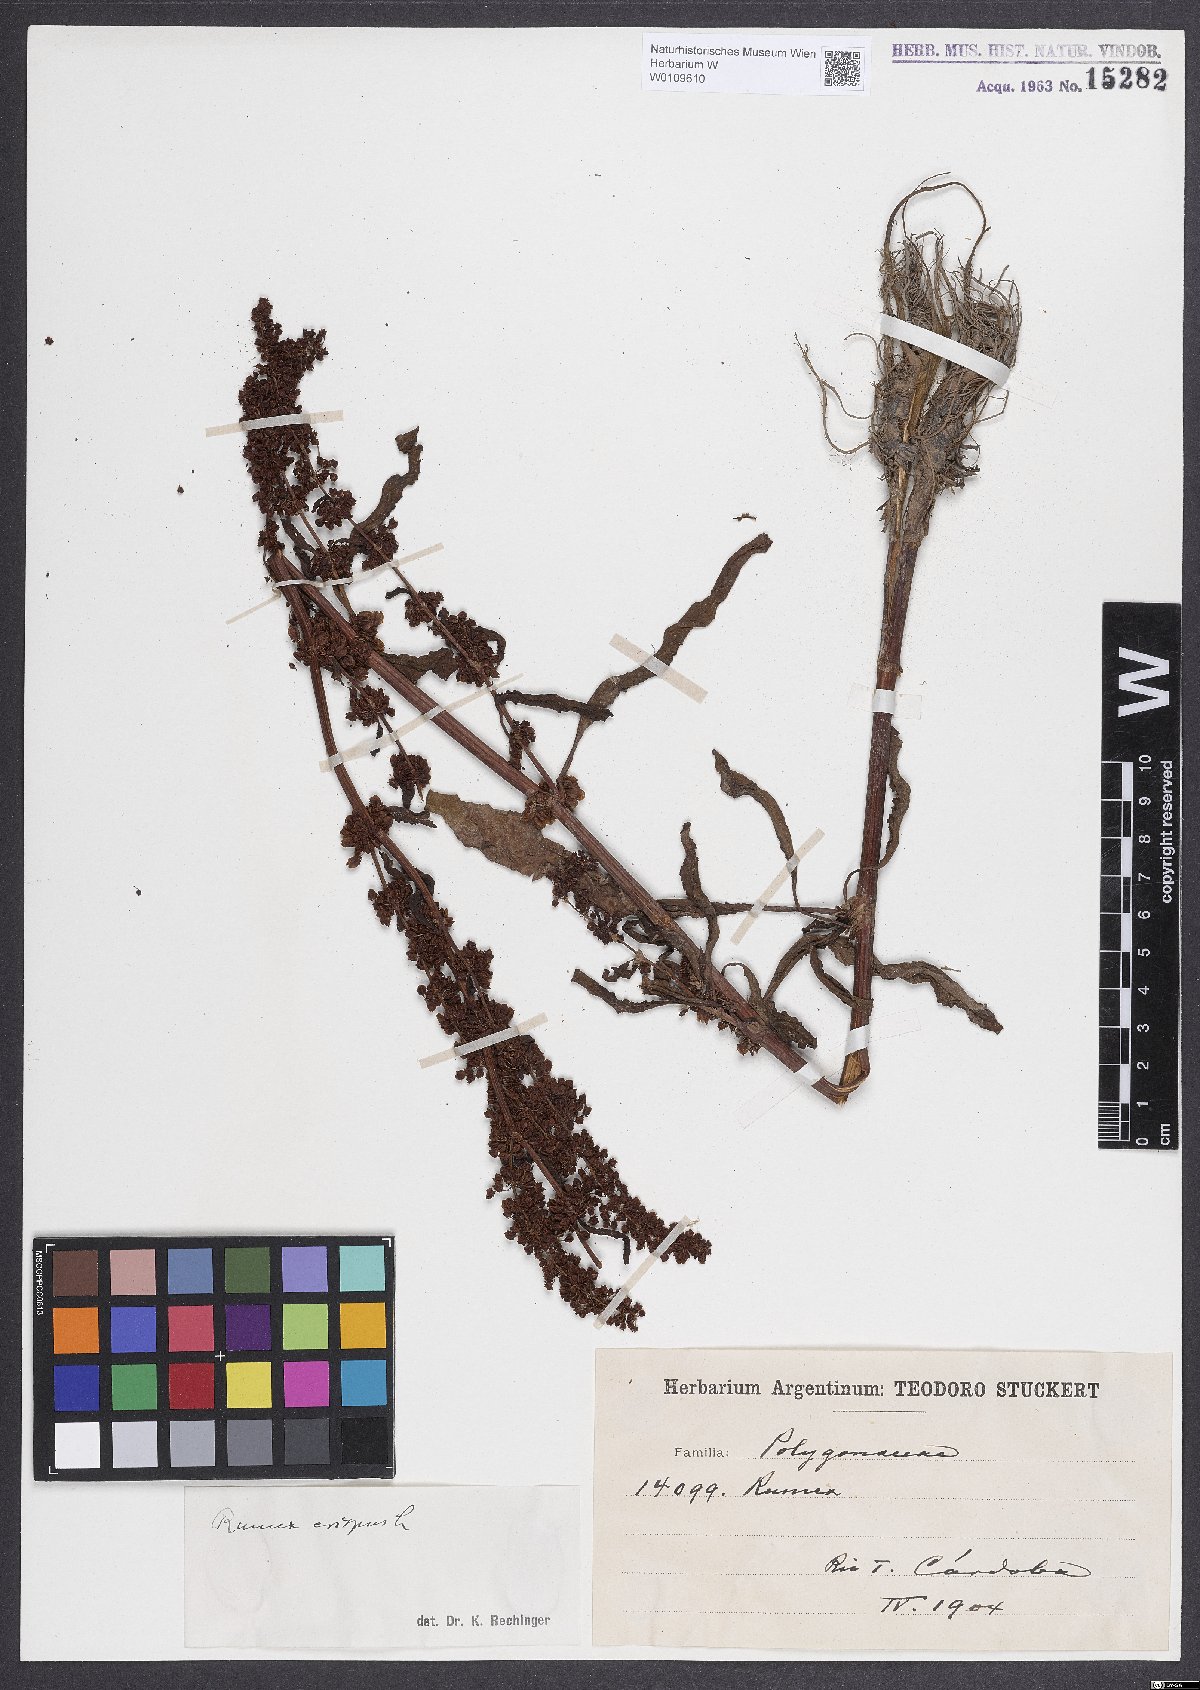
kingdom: Plantae
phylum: Tracheophyta
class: Magnoliopsida
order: Caryophyllales
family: Polygonaceae
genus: Rumex
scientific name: Rumex crispus
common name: Curled dock
